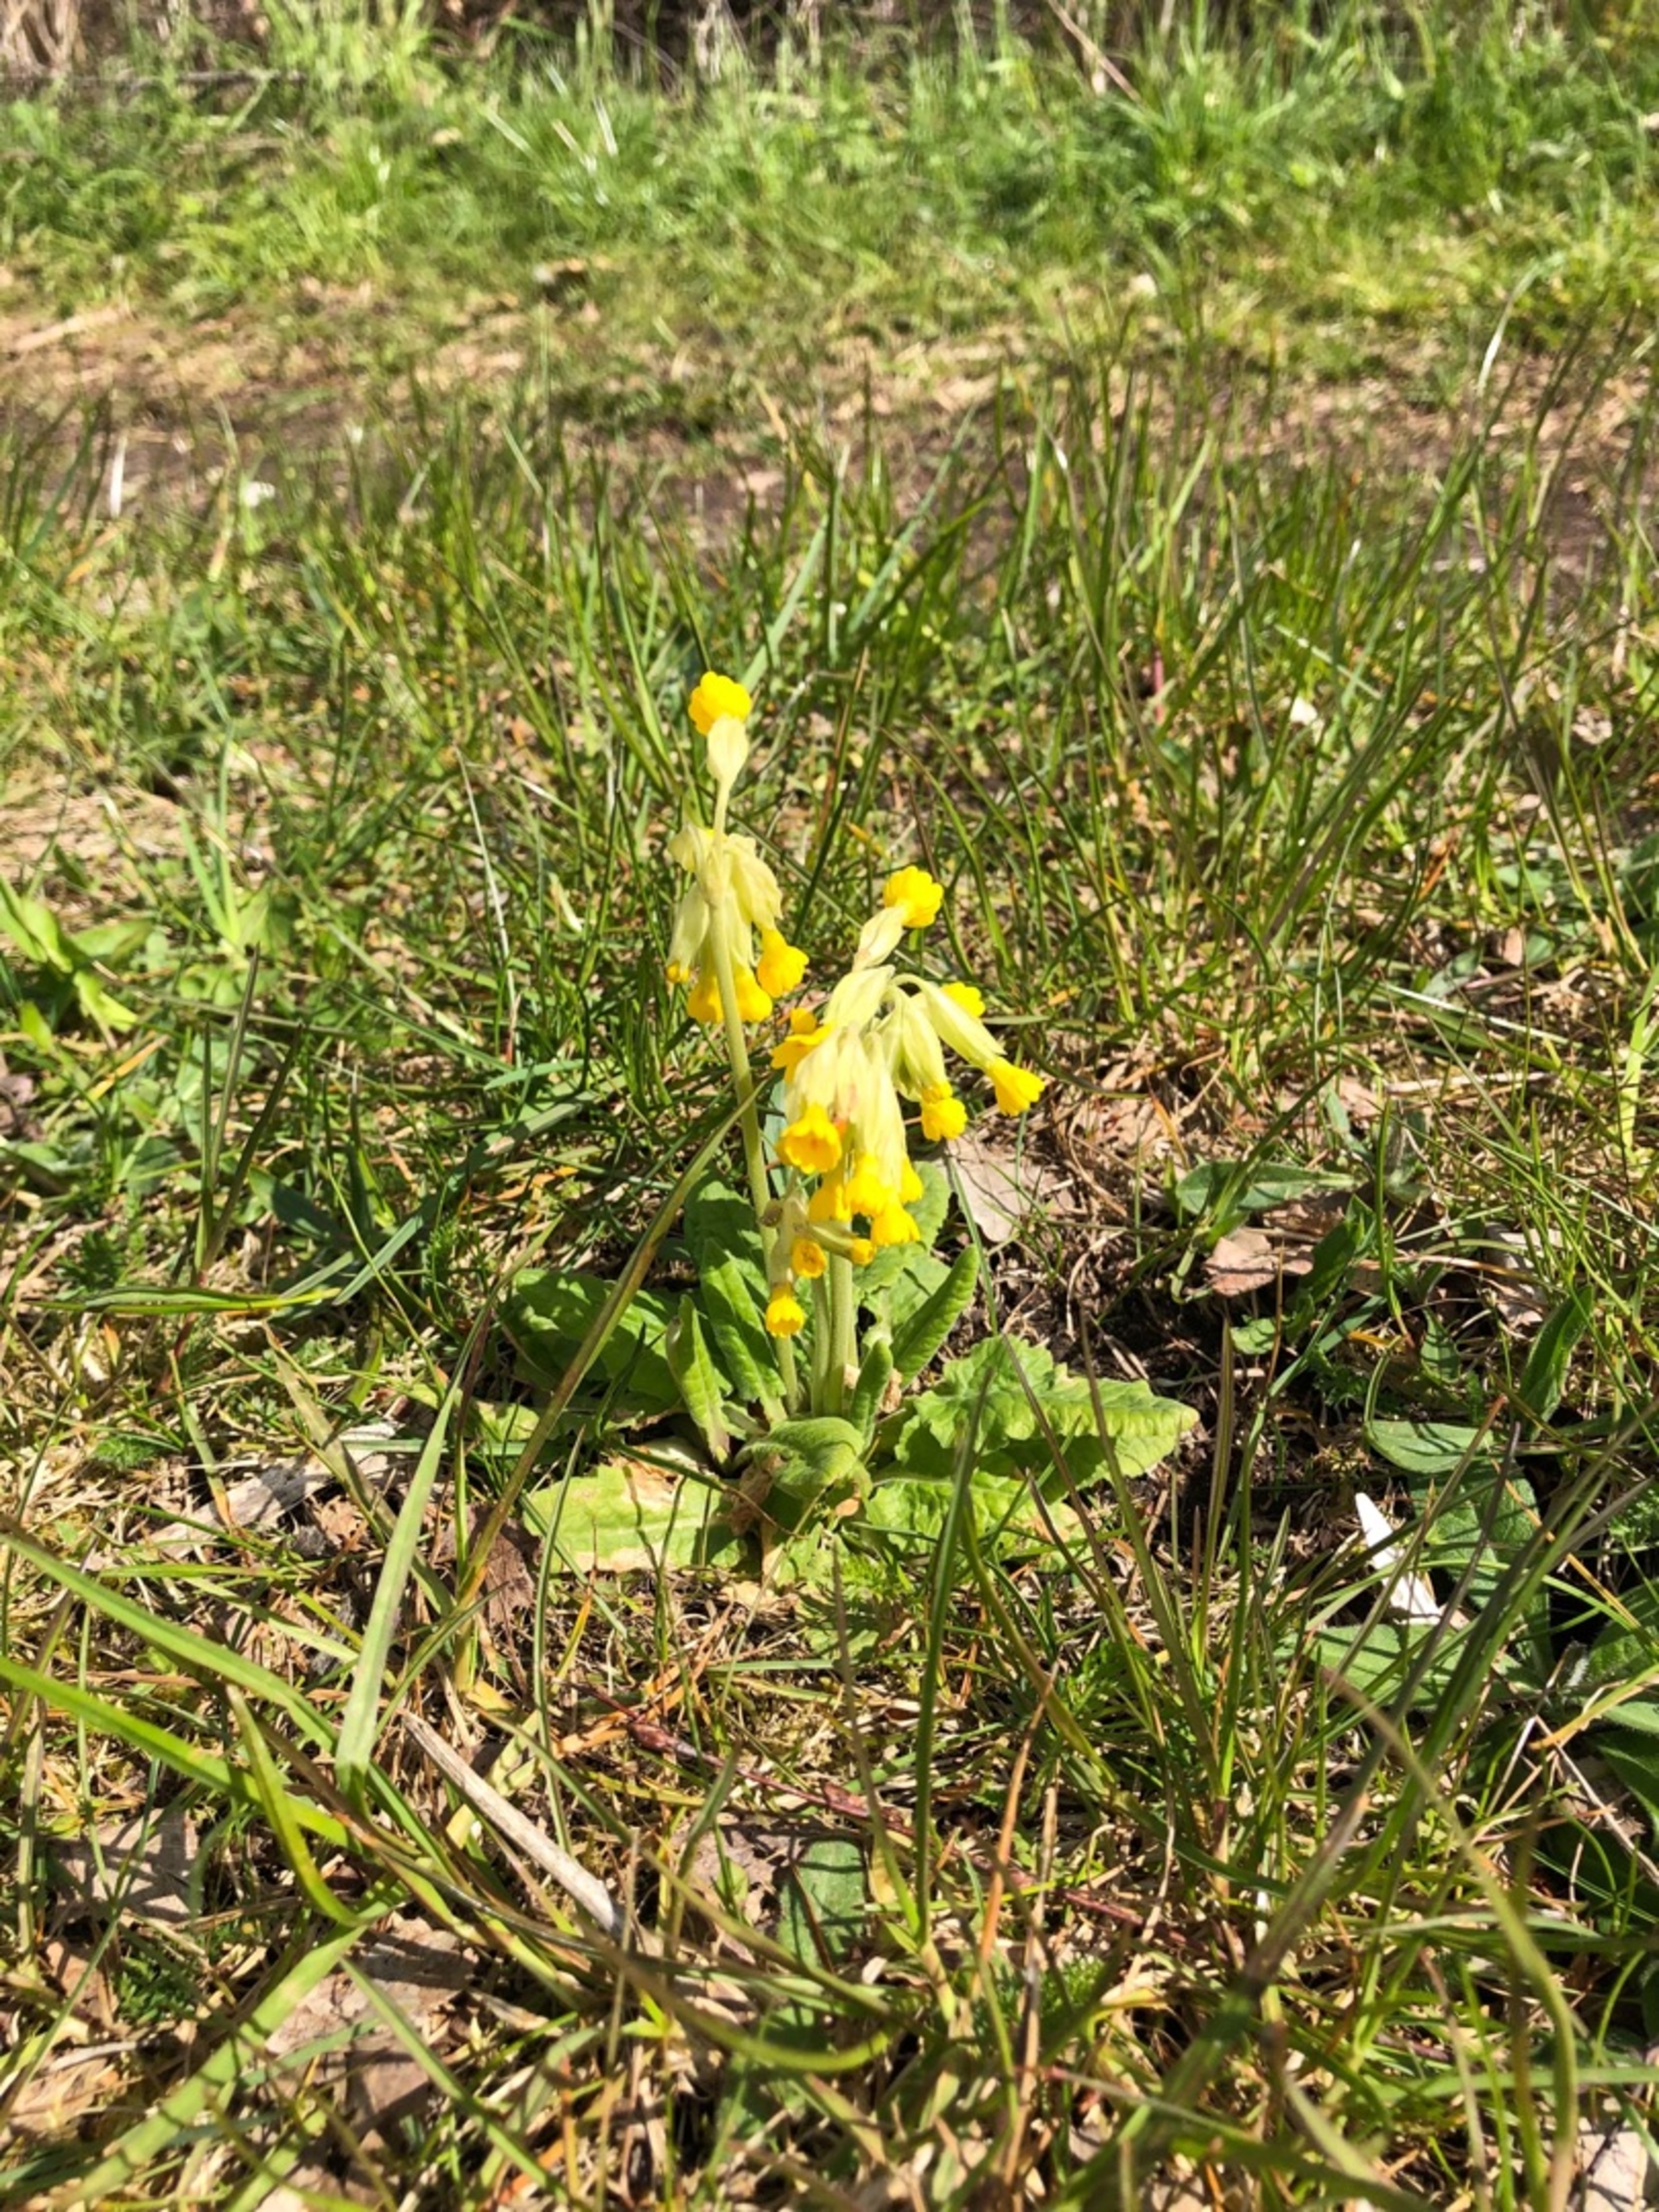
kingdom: Plantae
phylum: Tracheophyta
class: Magnoliopsida
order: Ericales
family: Primulaceae
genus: Primula
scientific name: Primula veris
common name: Hulkravet kodriver
